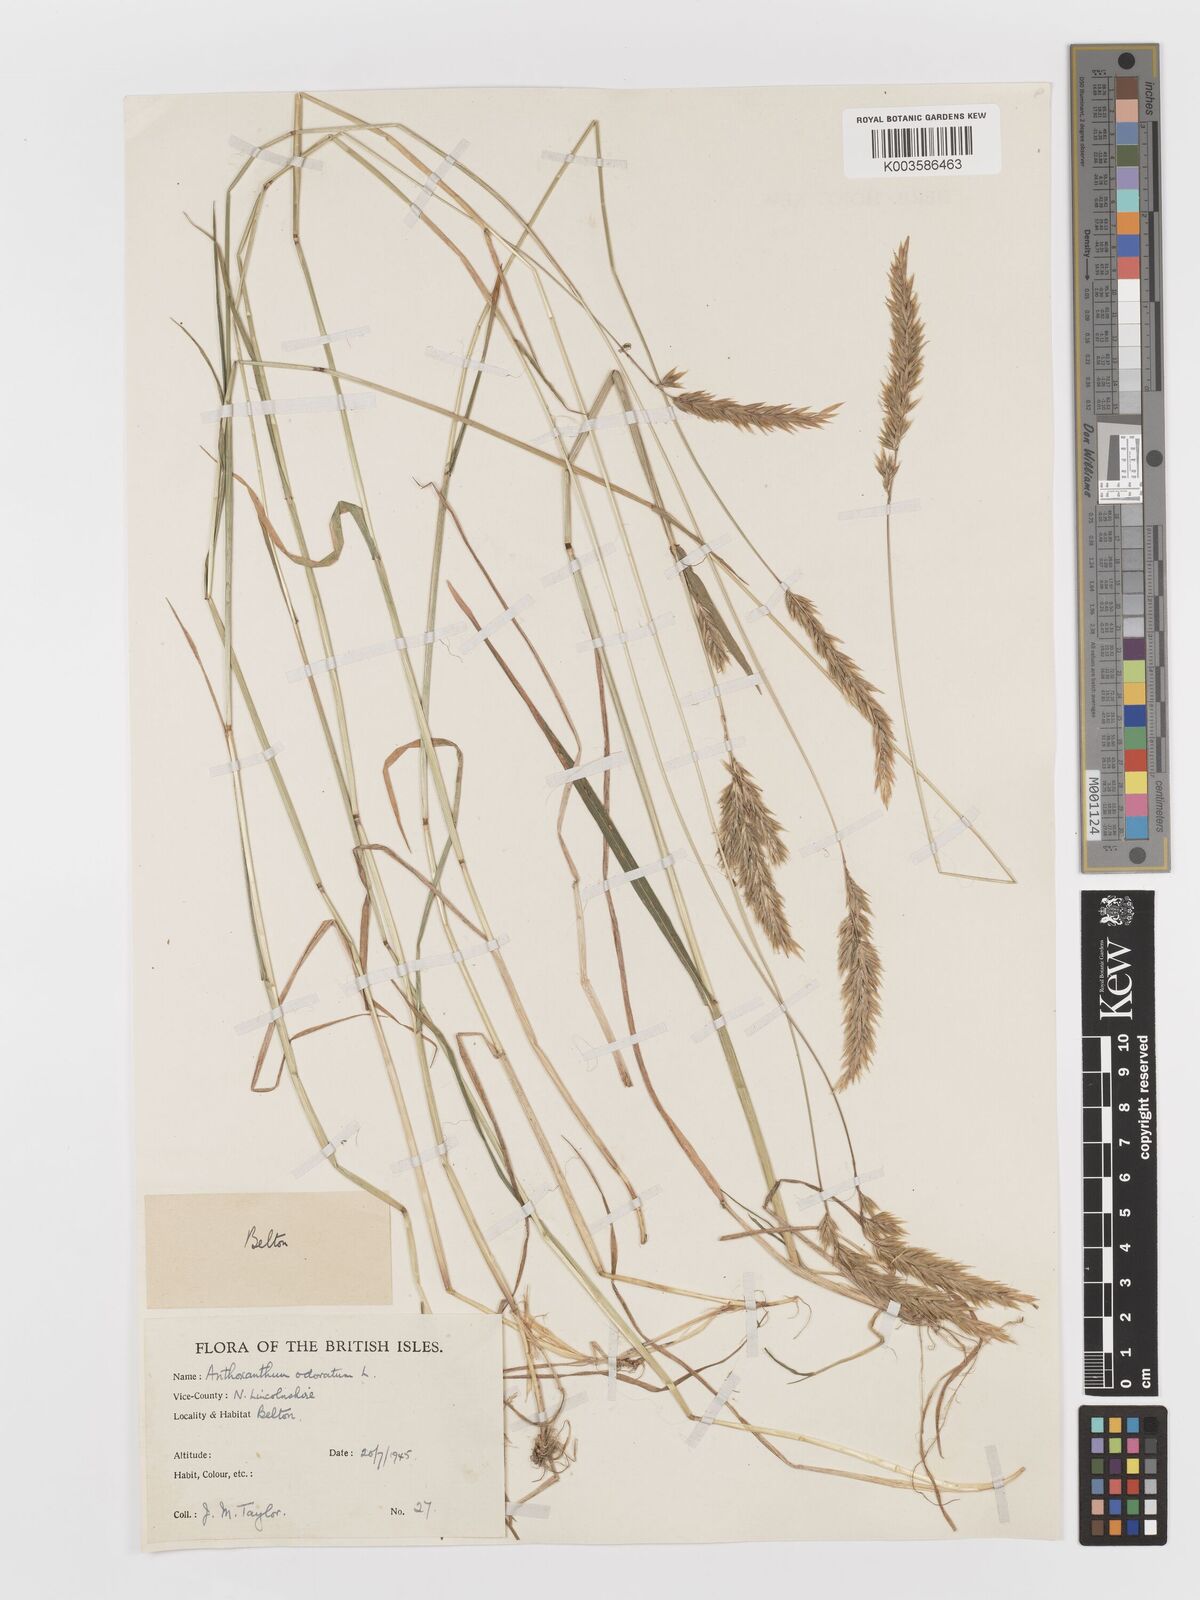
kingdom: Plantae
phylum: Tracheophyta
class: Liliopsida
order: Poales
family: Poaceae
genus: Anthoxanthum
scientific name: Anthoxanthum odoratum
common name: Sweet vernalgrass
